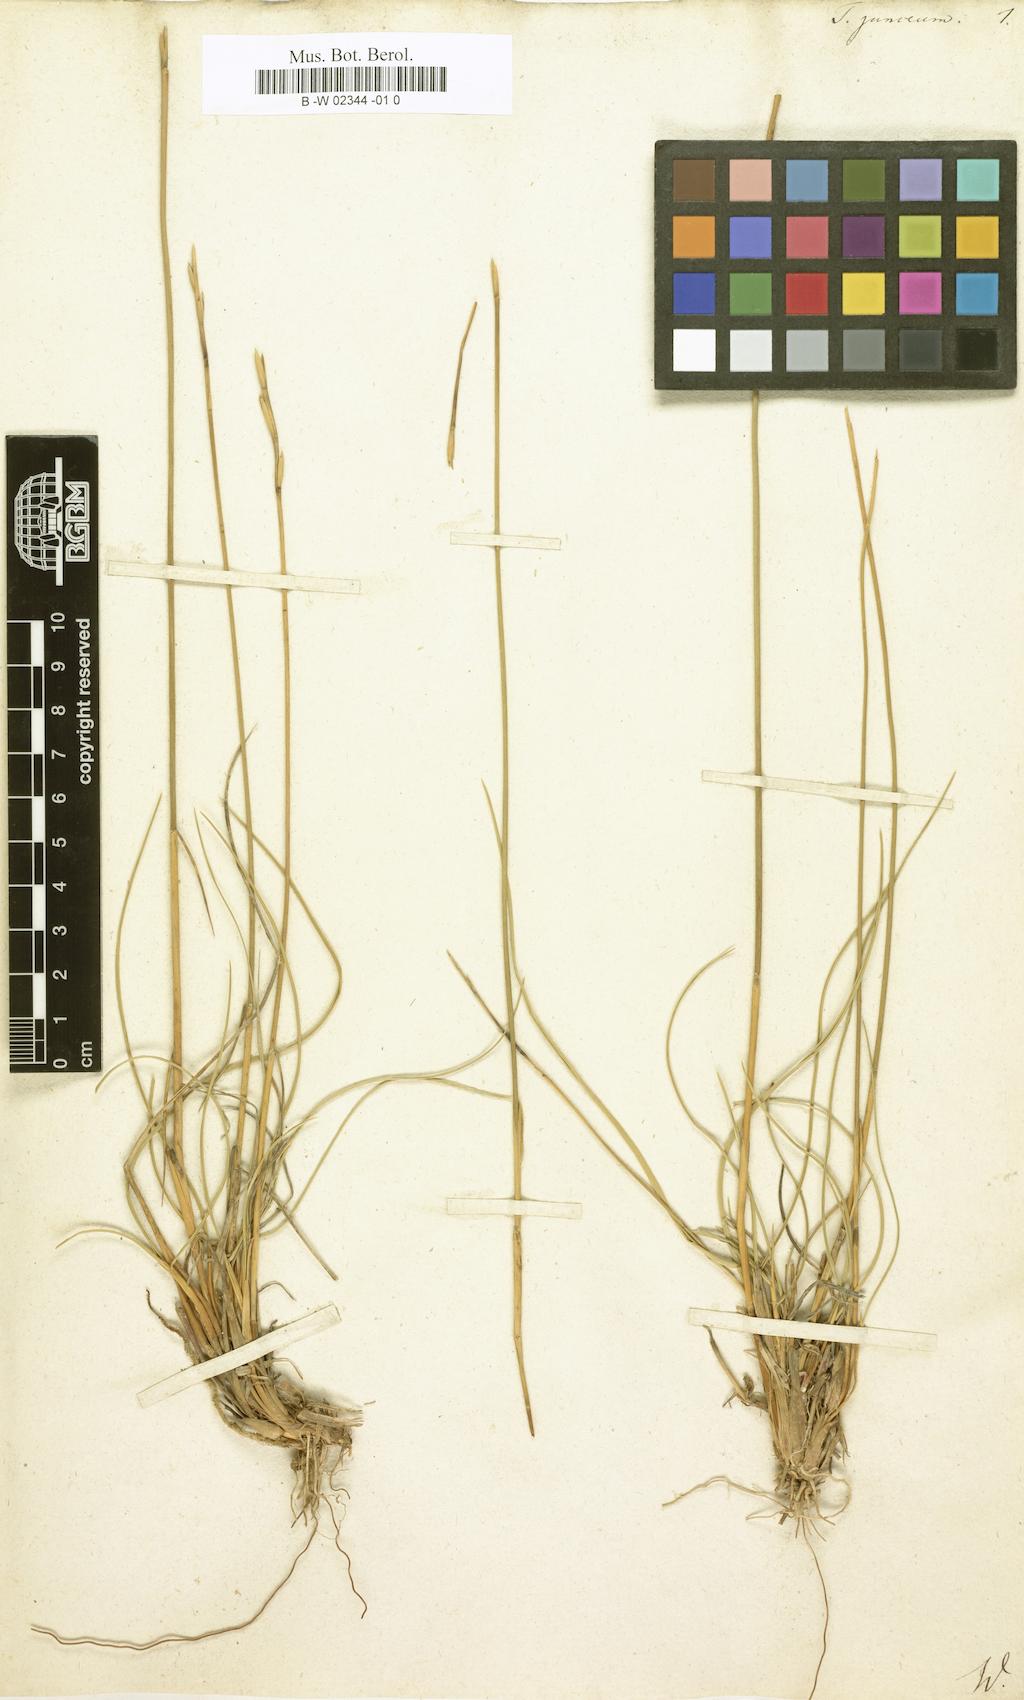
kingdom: Plantae
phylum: Tracheophyta
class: Liliopsida
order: Poales
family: Poaceae
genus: Thinopyrum
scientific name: Thinopyrum
